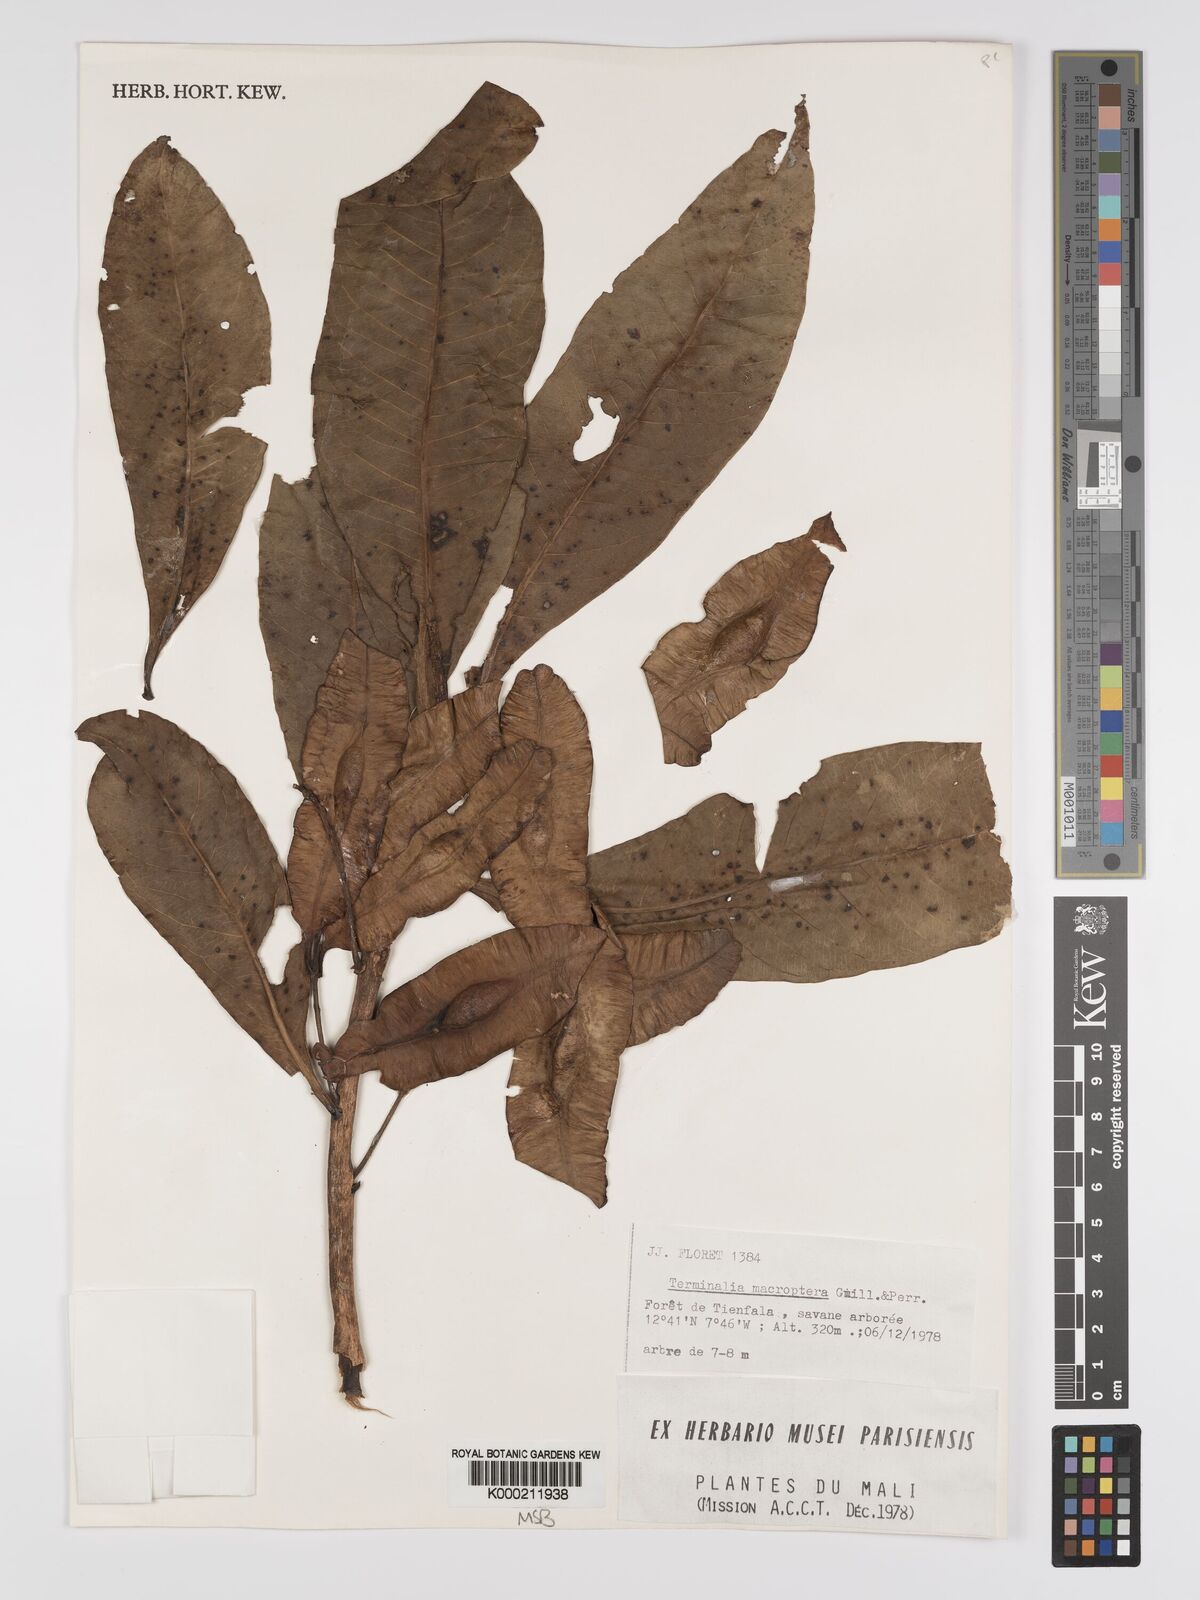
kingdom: Plantae
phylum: Tracheophyta
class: Magnoliopsida
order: Myrtales
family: Combretaceae
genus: Terminalia
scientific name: Terminalia macroptera
